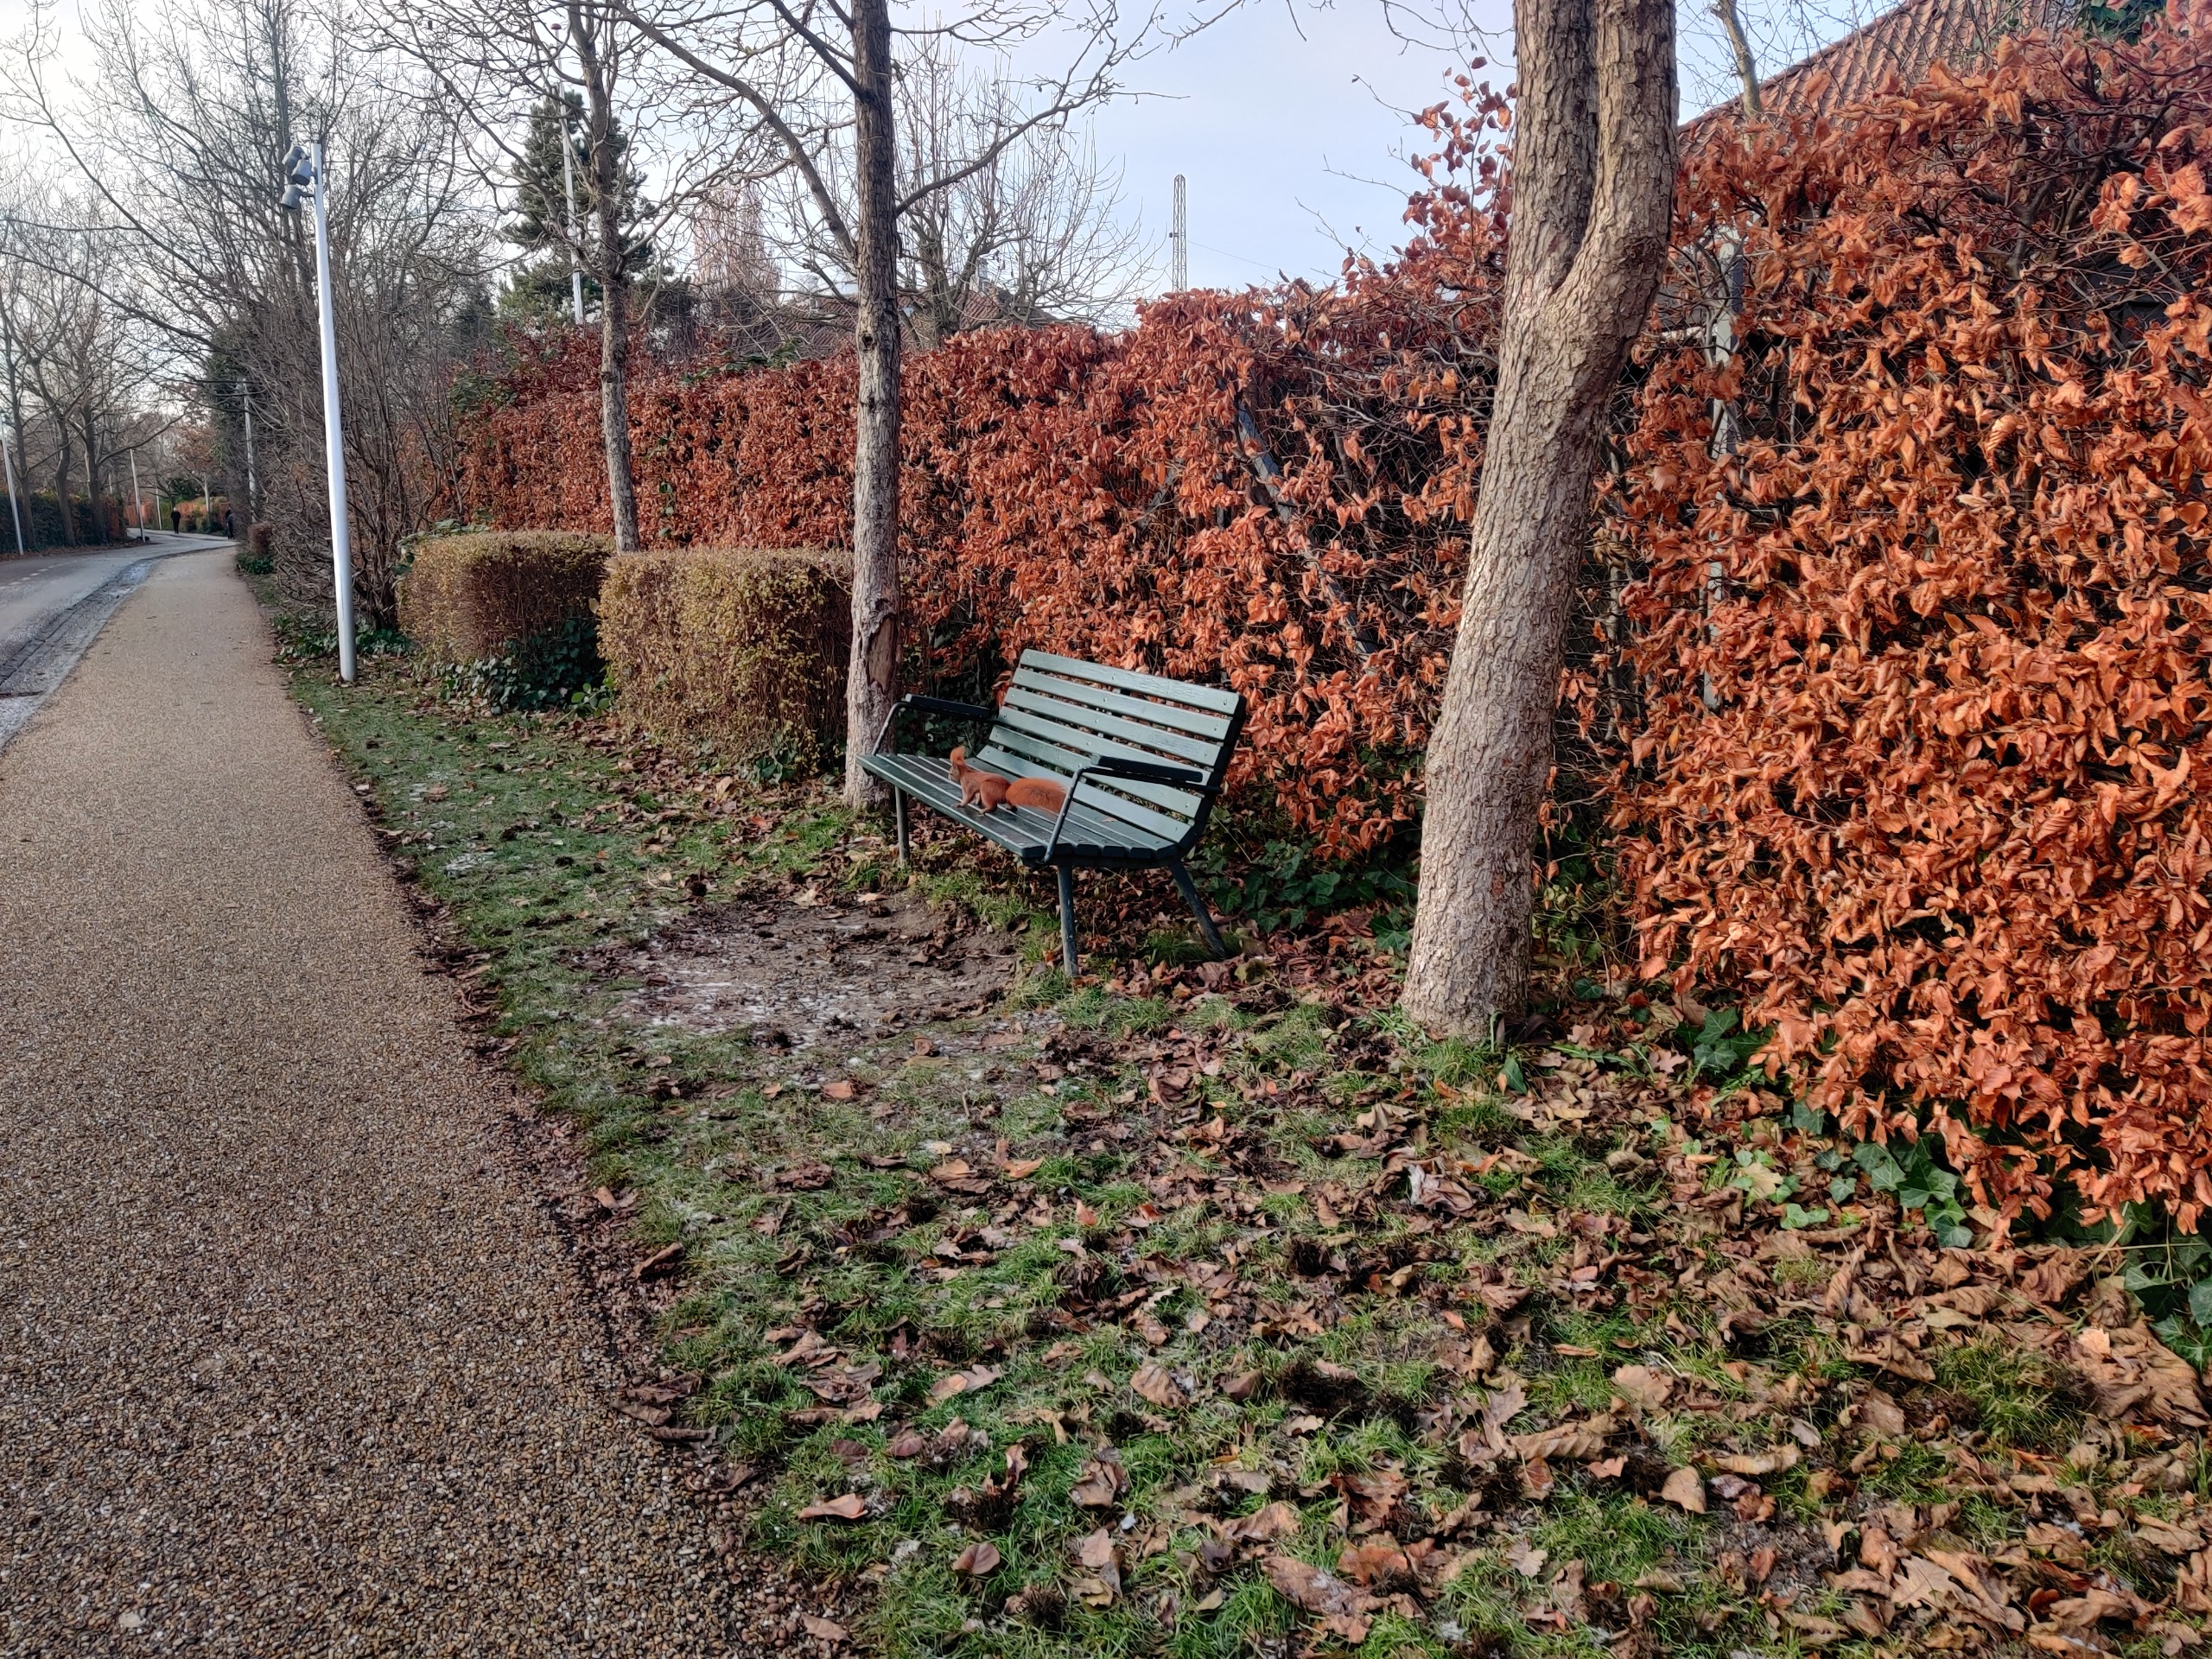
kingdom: Animalia
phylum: Chordata
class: Mammalia
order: Rodentia
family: Sciuridae
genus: Sciurus
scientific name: Sciurus vulgaris
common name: Egern
